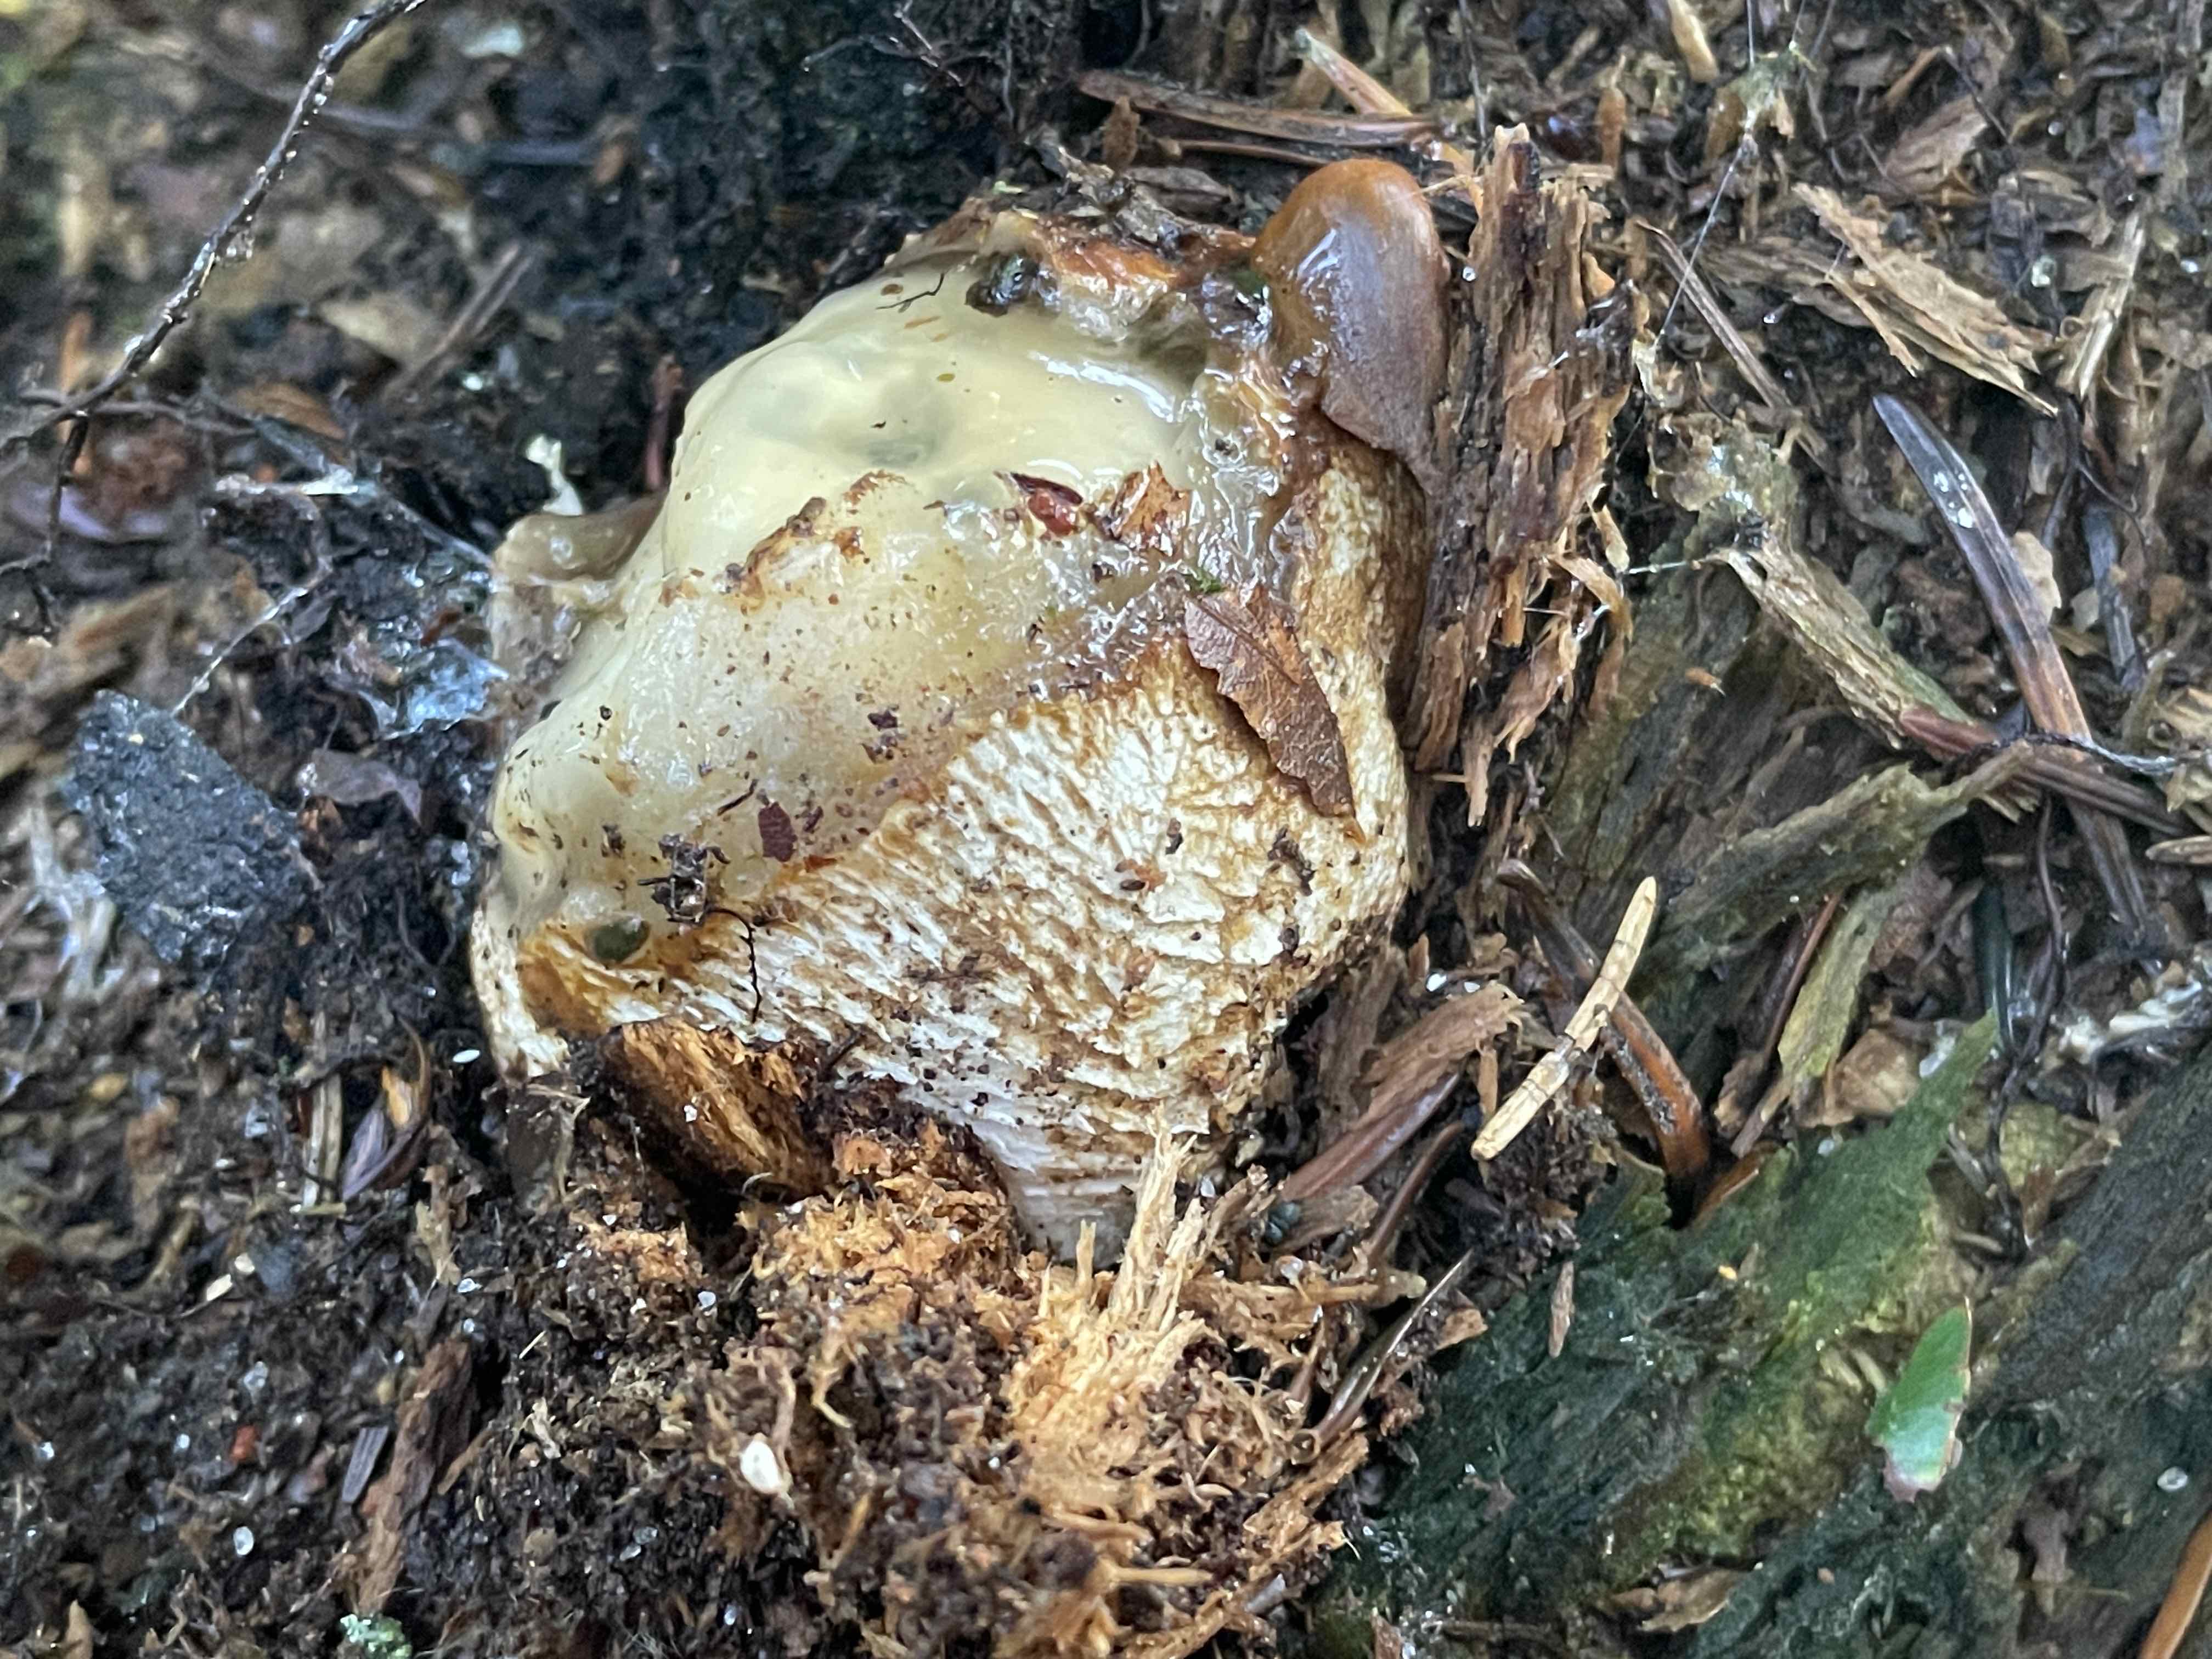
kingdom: Fungi
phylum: Basidiomycota
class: Agaricomycetes
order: Phallales
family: Phallaceae
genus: Phallus
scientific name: Phallus impudicus
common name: almindelig stinksvamp
